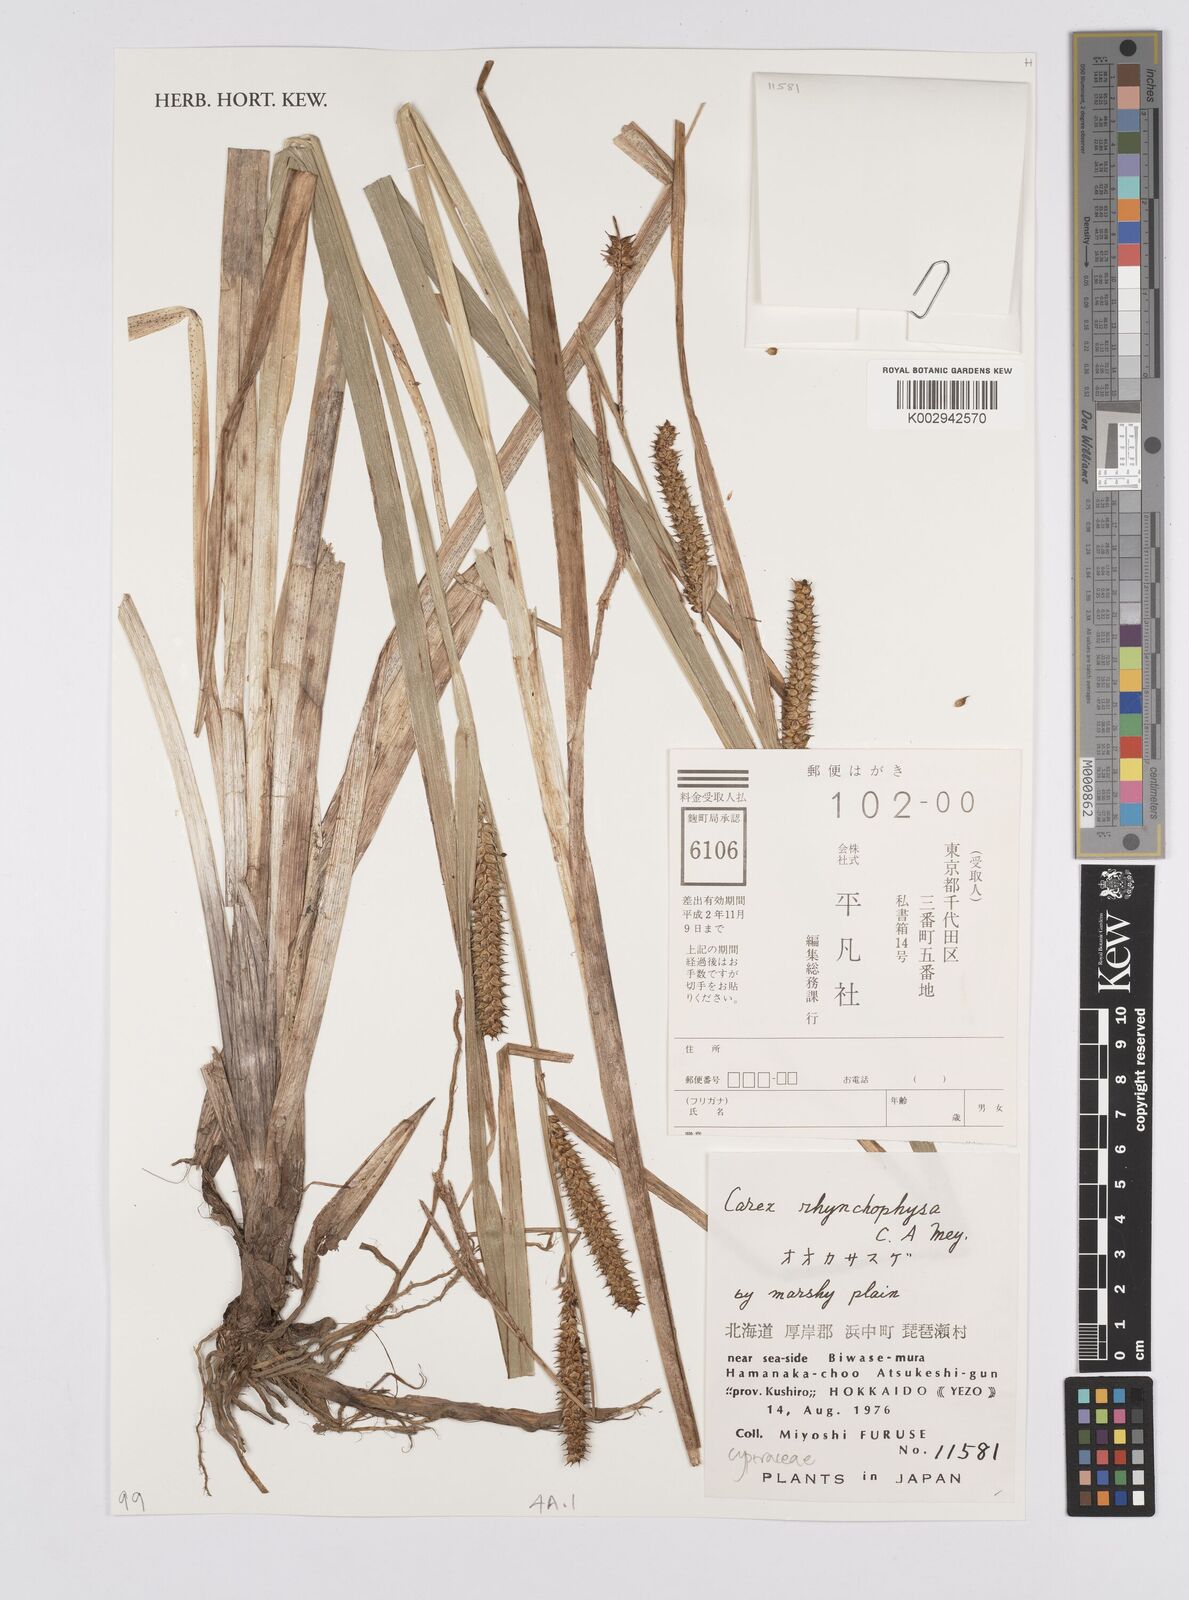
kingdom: Plantae
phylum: Tracheophyta
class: Liliopsida
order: Poales
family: Cyperaceae
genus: Carex
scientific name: Carex utriculata
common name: Beaked sedge
